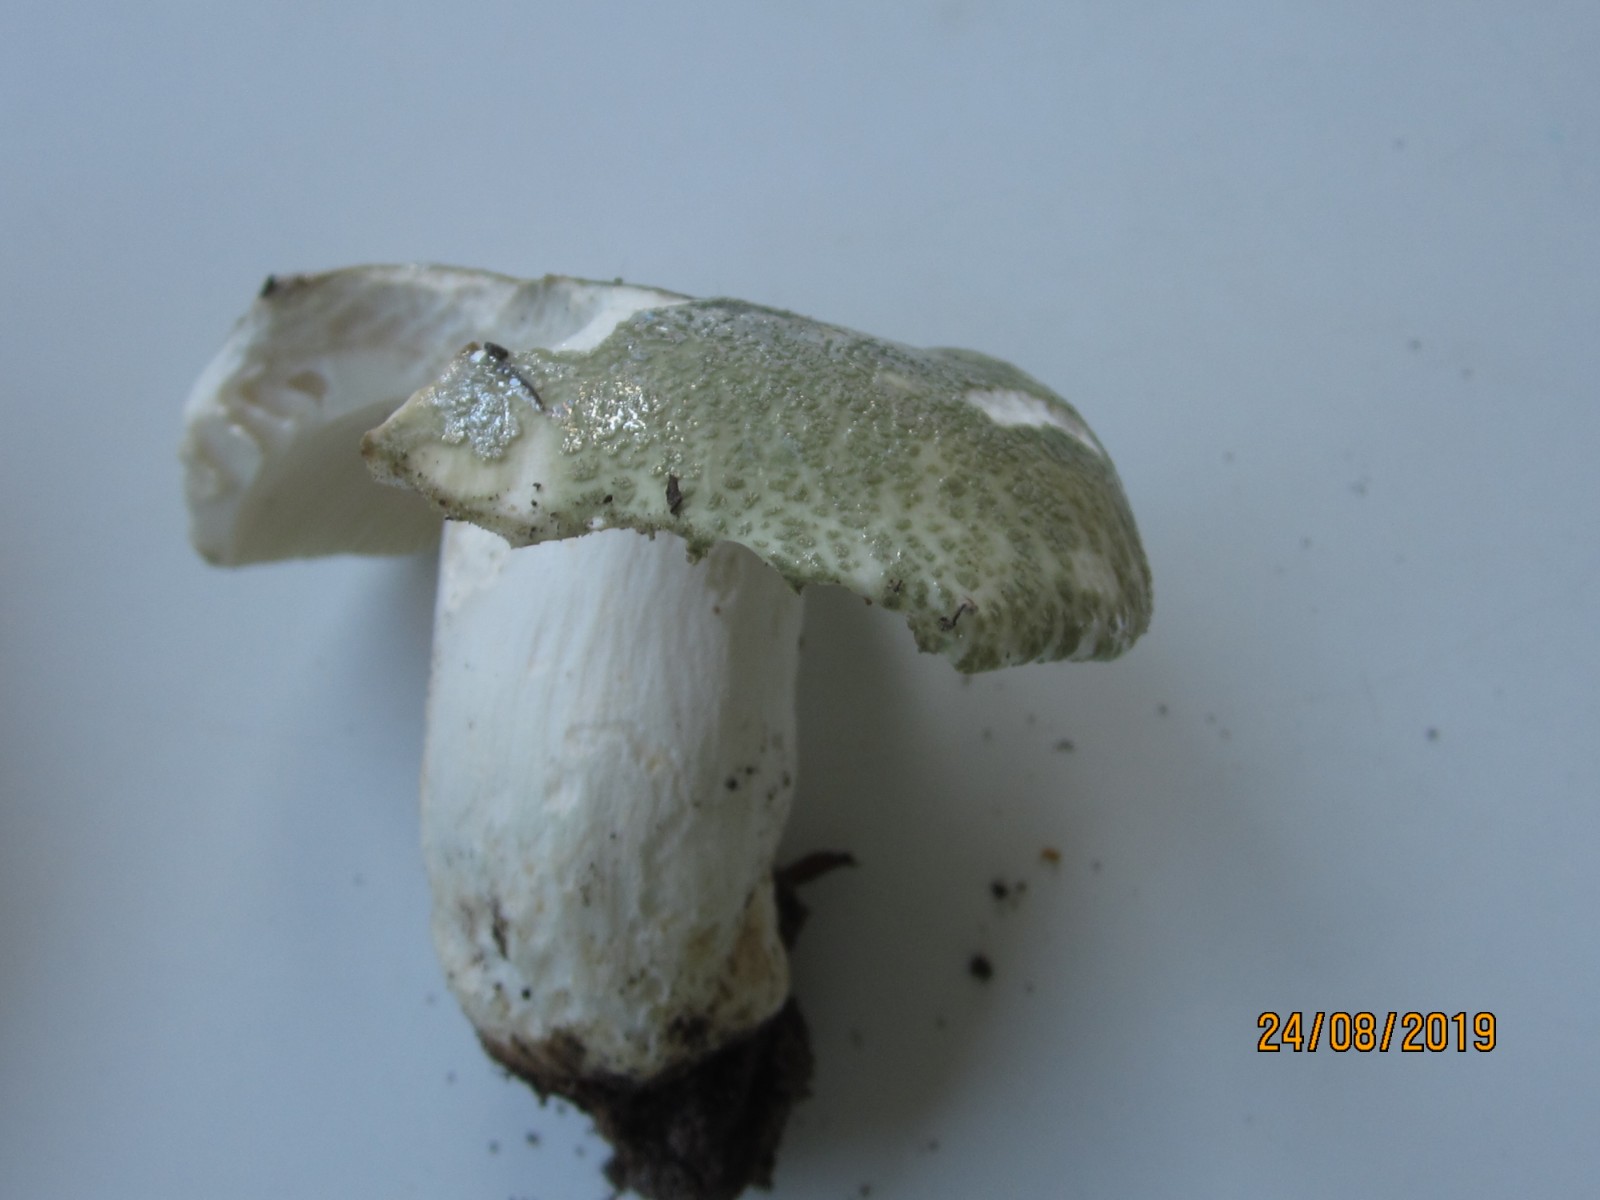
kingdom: Fungi
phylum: Basidiomycota
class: Agaricomycetes
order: Russulales
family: Russulaceae
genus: Russula
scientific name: Russula virescens
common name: spanskgrøn skørhat
